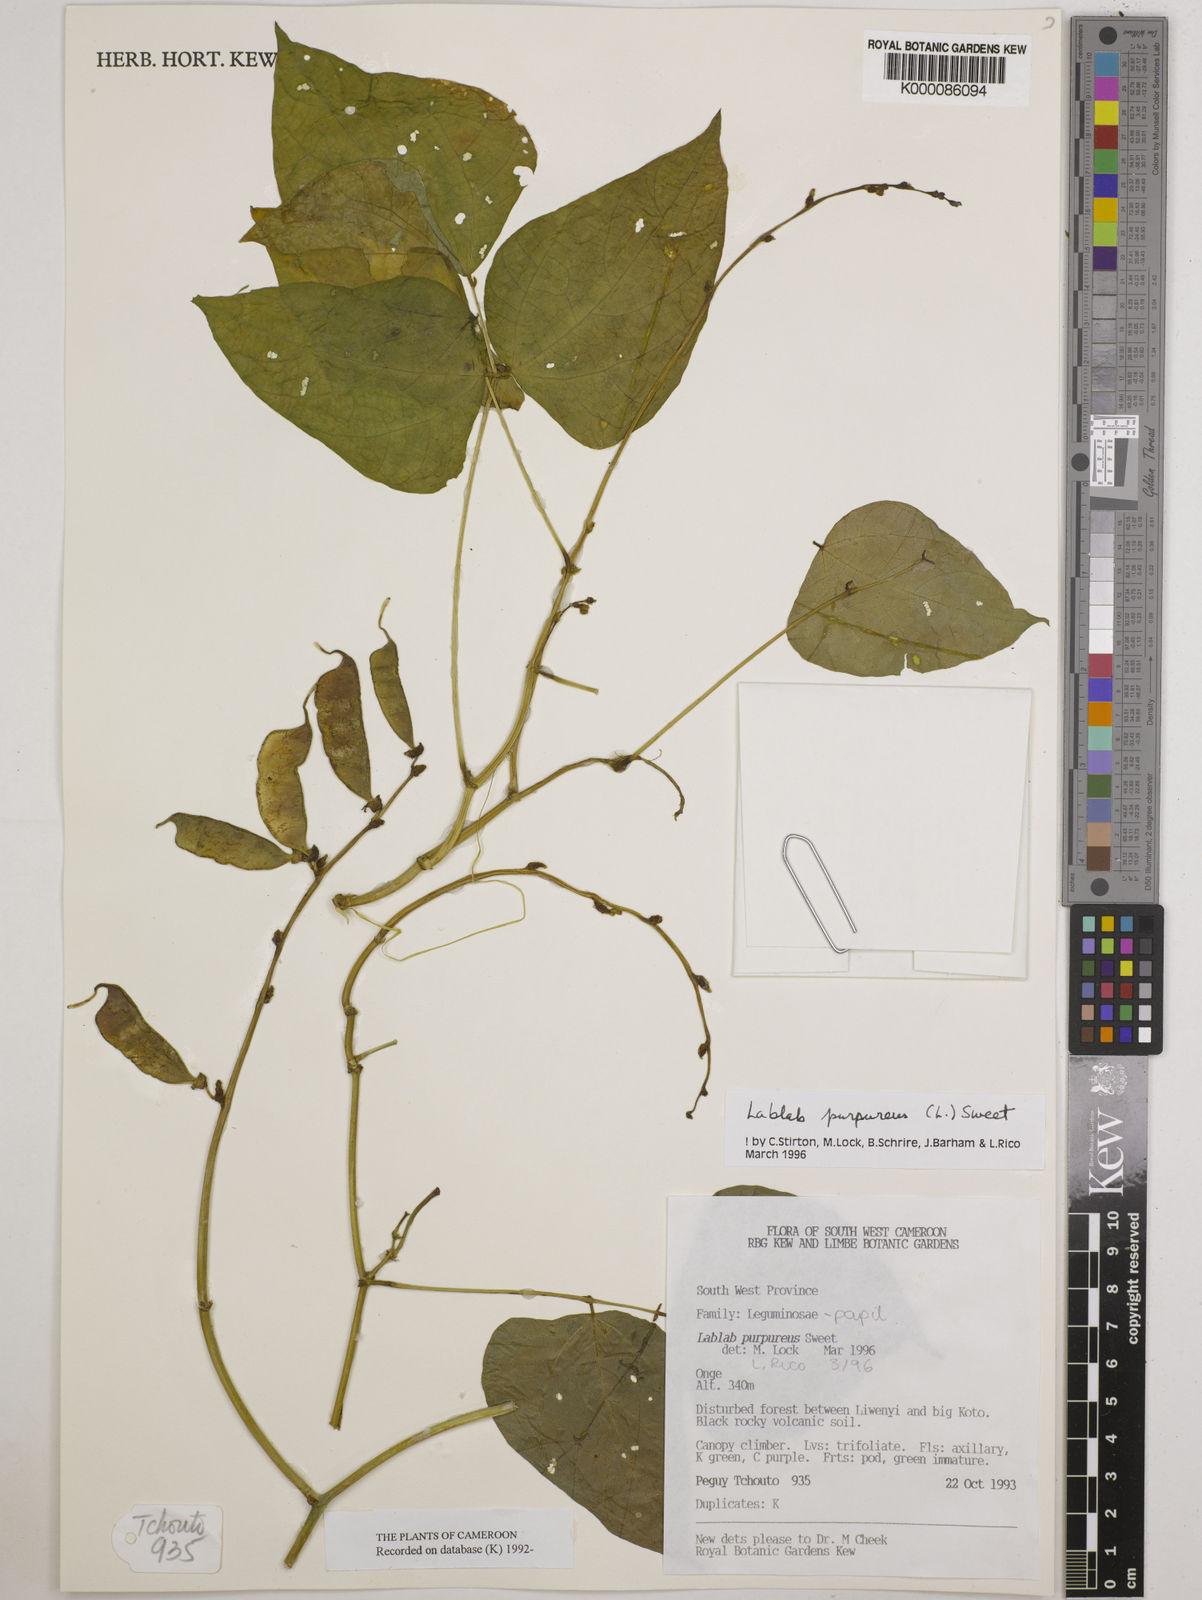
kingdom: Plantae
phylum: Tracheophyta
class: Magnoliopsida
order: Fabales
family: Fabaceae
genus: Lablab
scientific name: Lablab purpureus
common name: Lablab-bean
